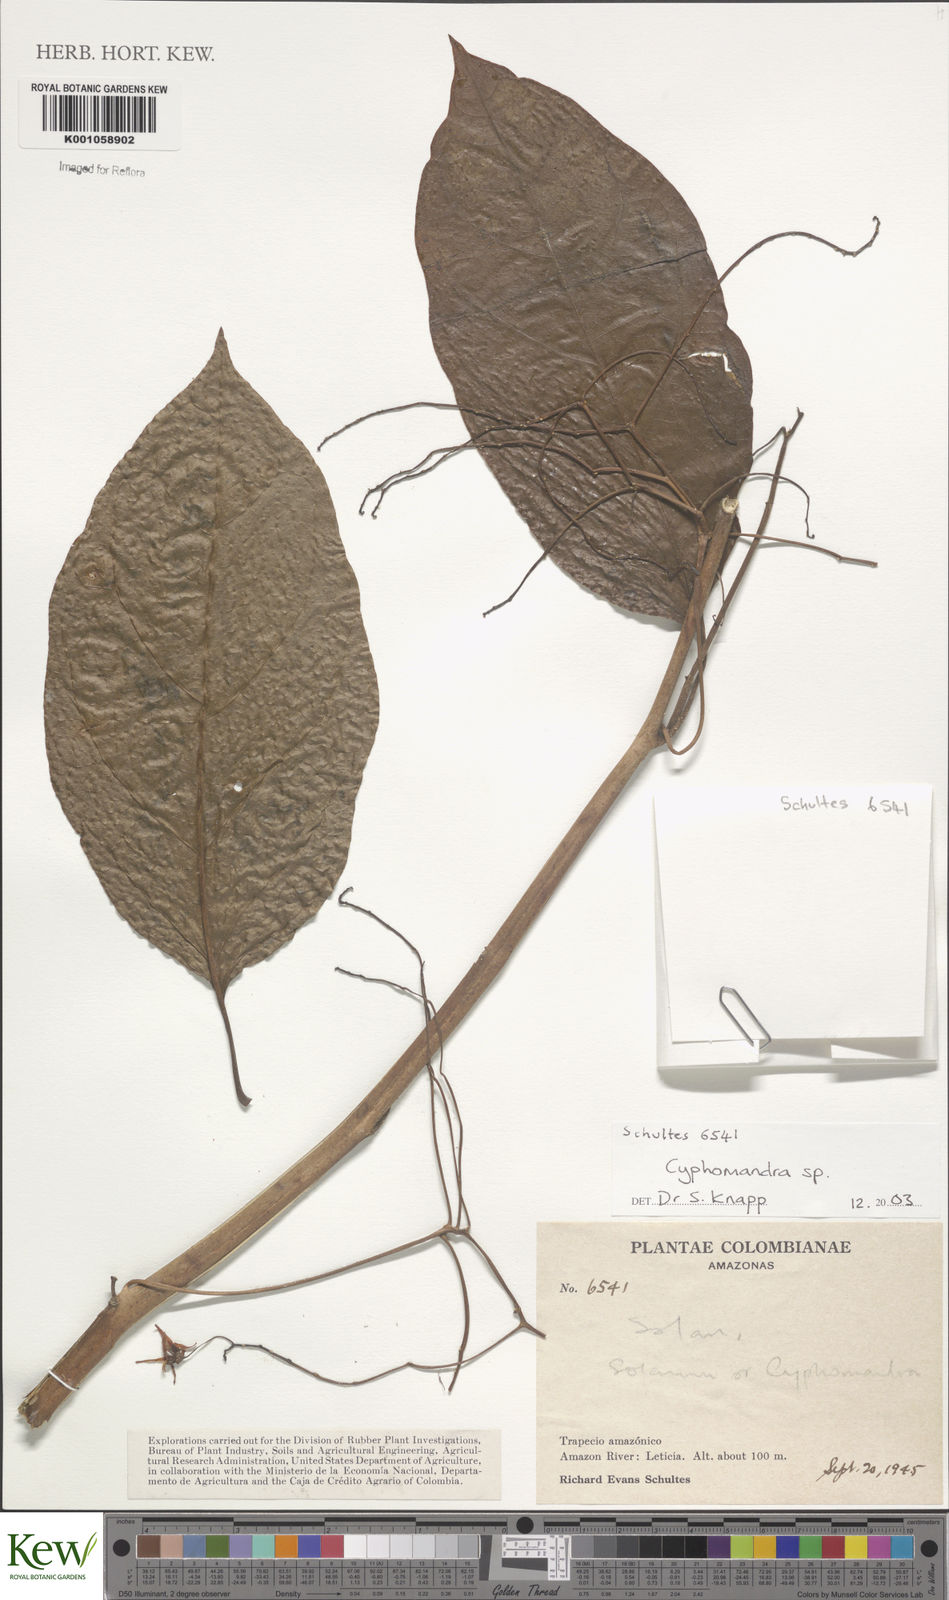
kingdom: Plantae
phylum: Tracheophyta
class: Magnoliopsida
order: Solanales
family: Solanaceae
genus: Solanum
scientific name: Solanum occultum
